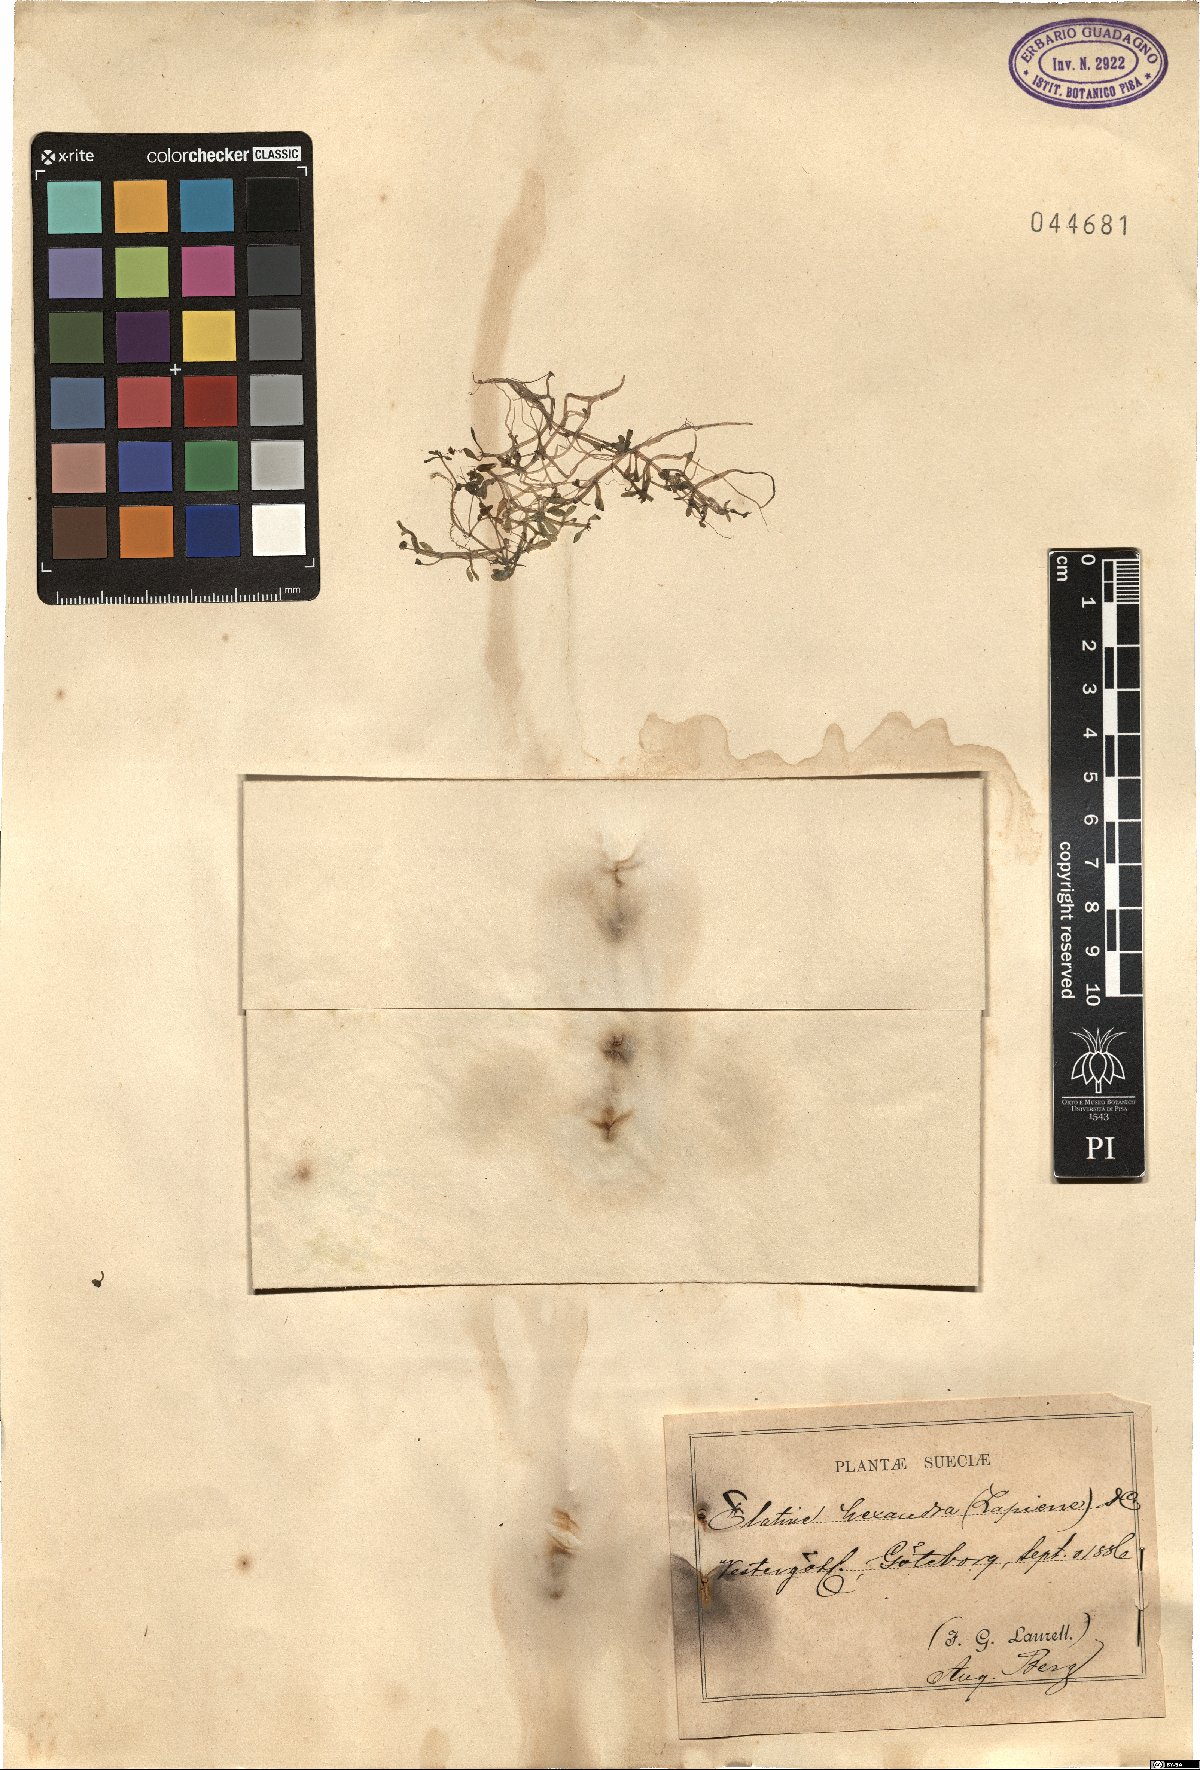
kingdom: Plantae
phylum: Tracheophyta
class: Magnoliopsida
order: Malpighiales
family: Elatinaceae
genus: Elatine
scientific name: Elatine hexandra
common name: Six-stamened waterwort
